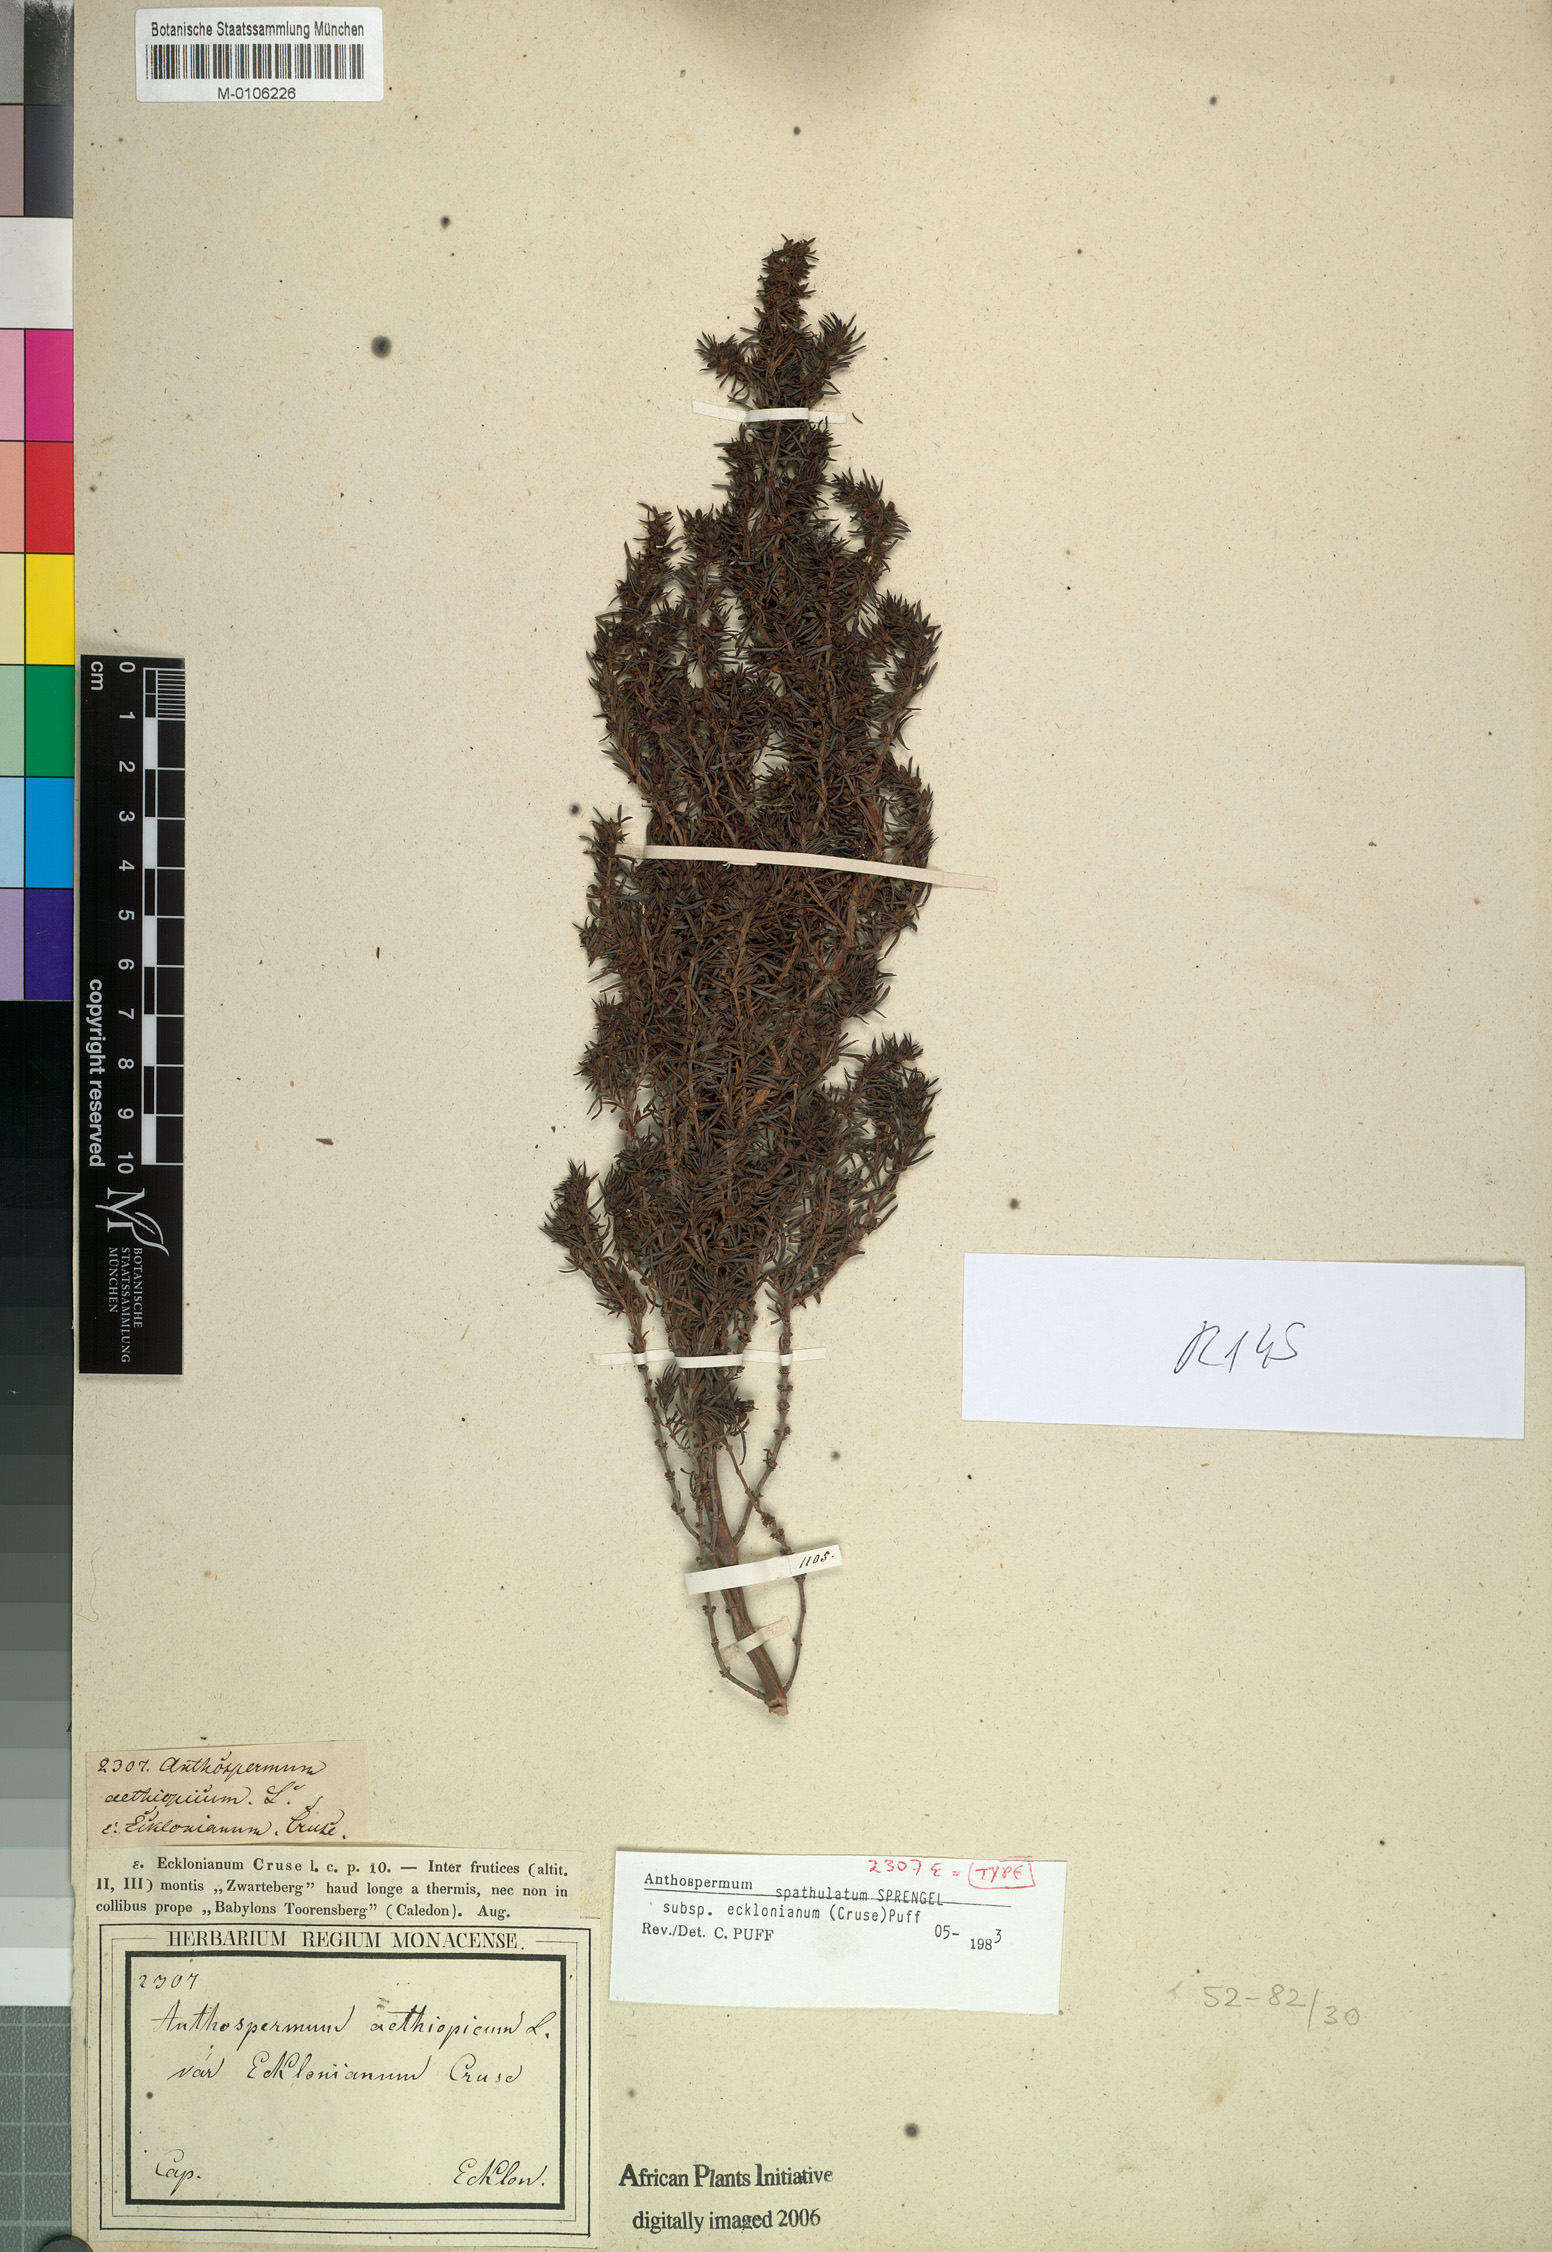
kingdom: Plantae
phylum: Tracheophyta
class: Magnoliopsida
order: Gentianales
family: Rubiaceae
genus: Anthospermum
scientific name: Anthospermum spathulatum
